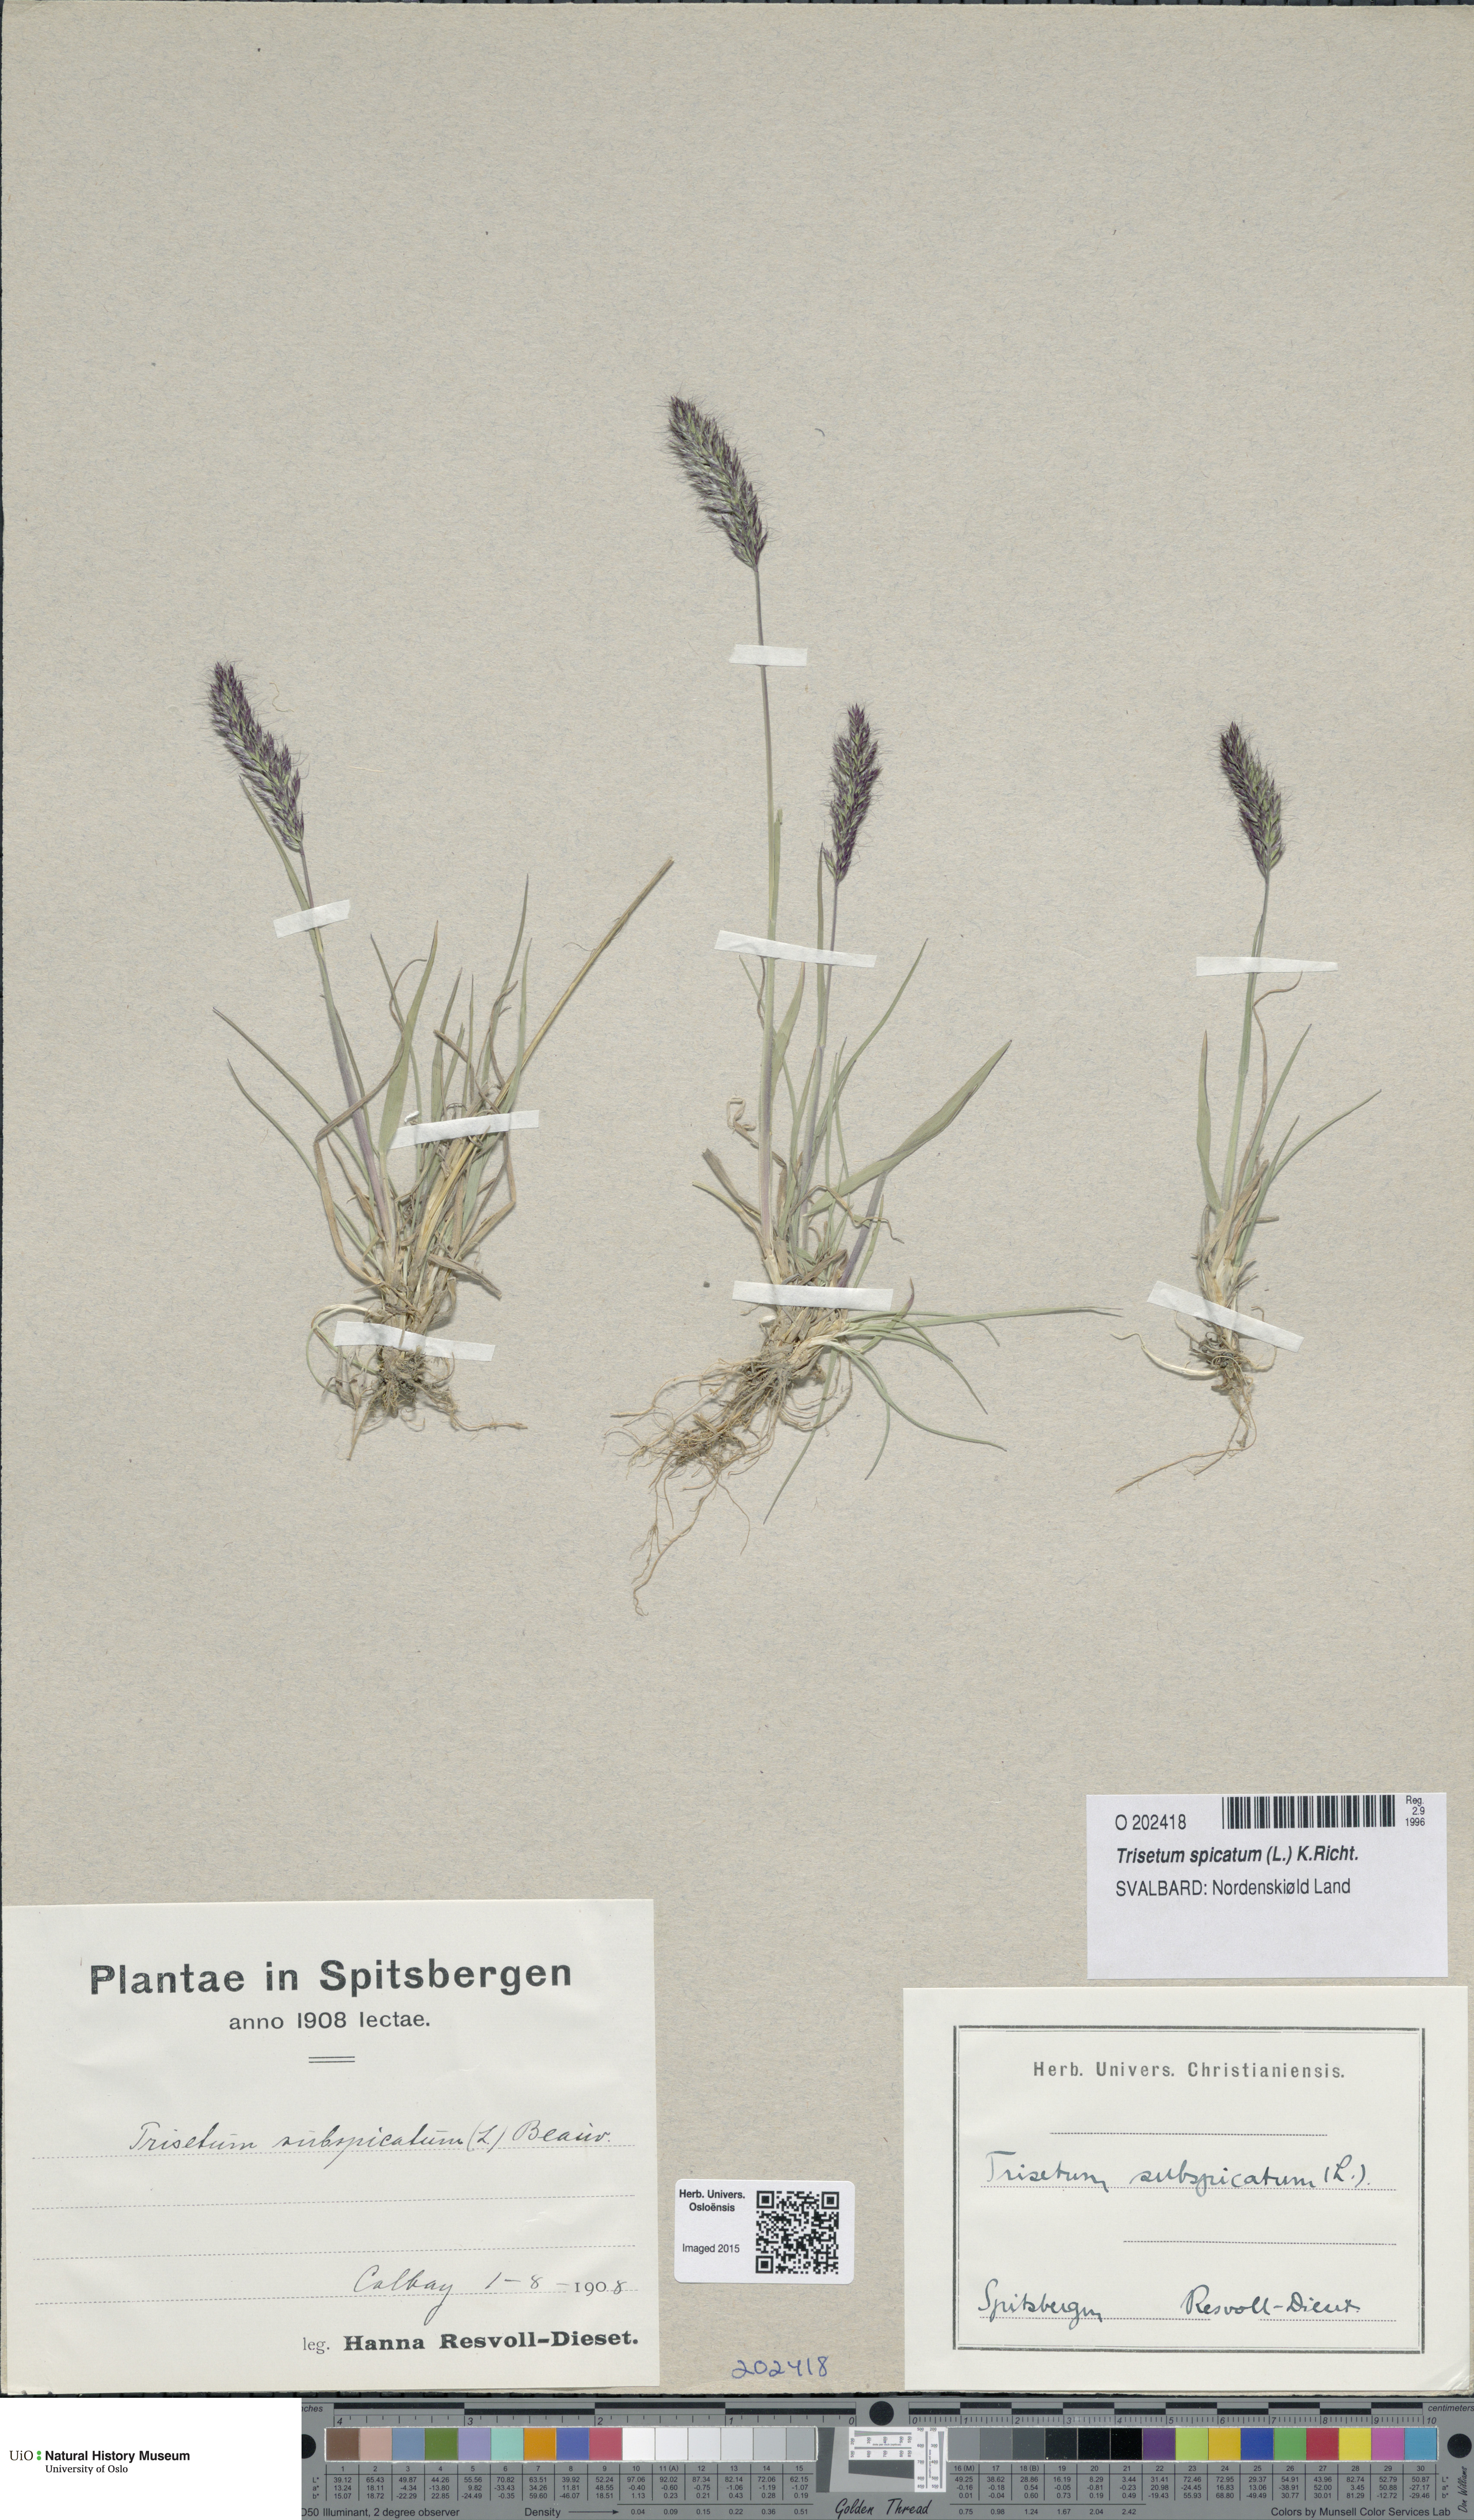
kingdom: Plantae
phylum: Tracheophyta
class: Liliopsida
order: Poales
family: Poaceae
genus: Koeleria
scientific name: Koeleria spicata
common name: Mountain trisetum
